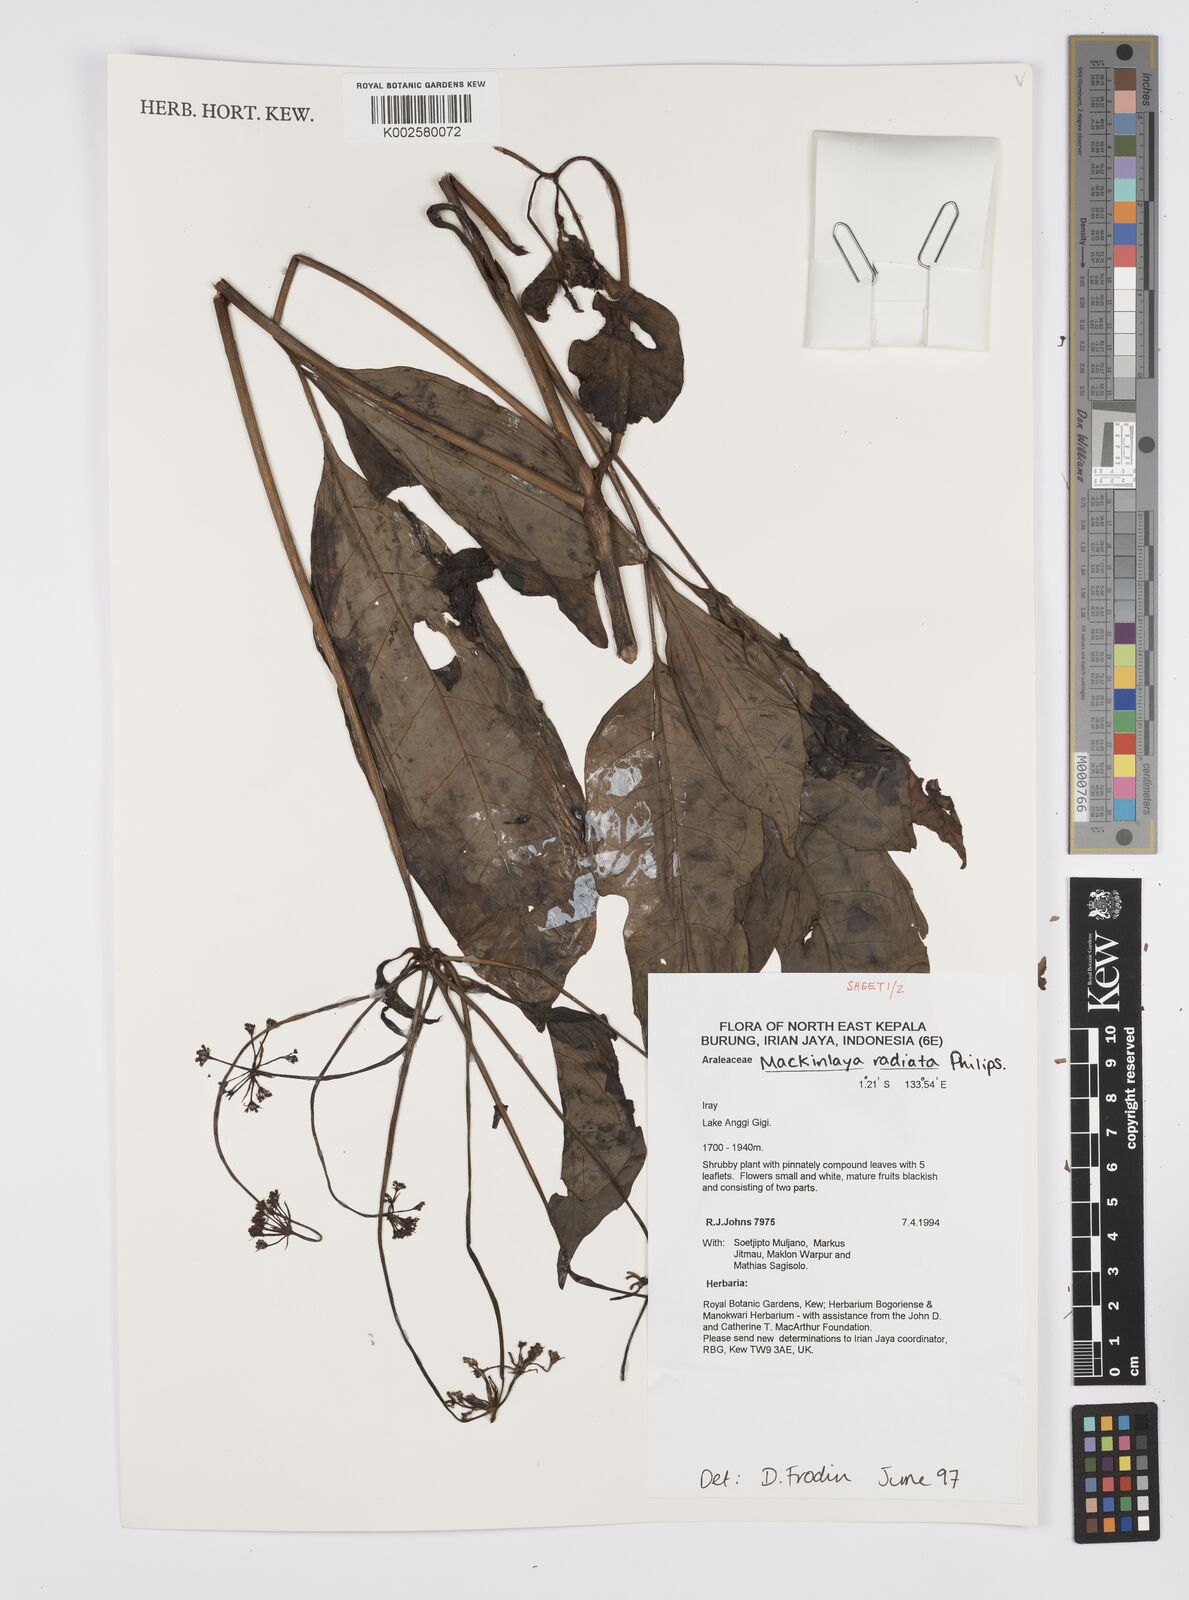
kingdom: Plantae
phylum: Tracheophyta
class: Magnoliopsida
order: Apiales
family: Apiaceae
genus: Mackinlaya
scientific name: Mackinlaya radiata
